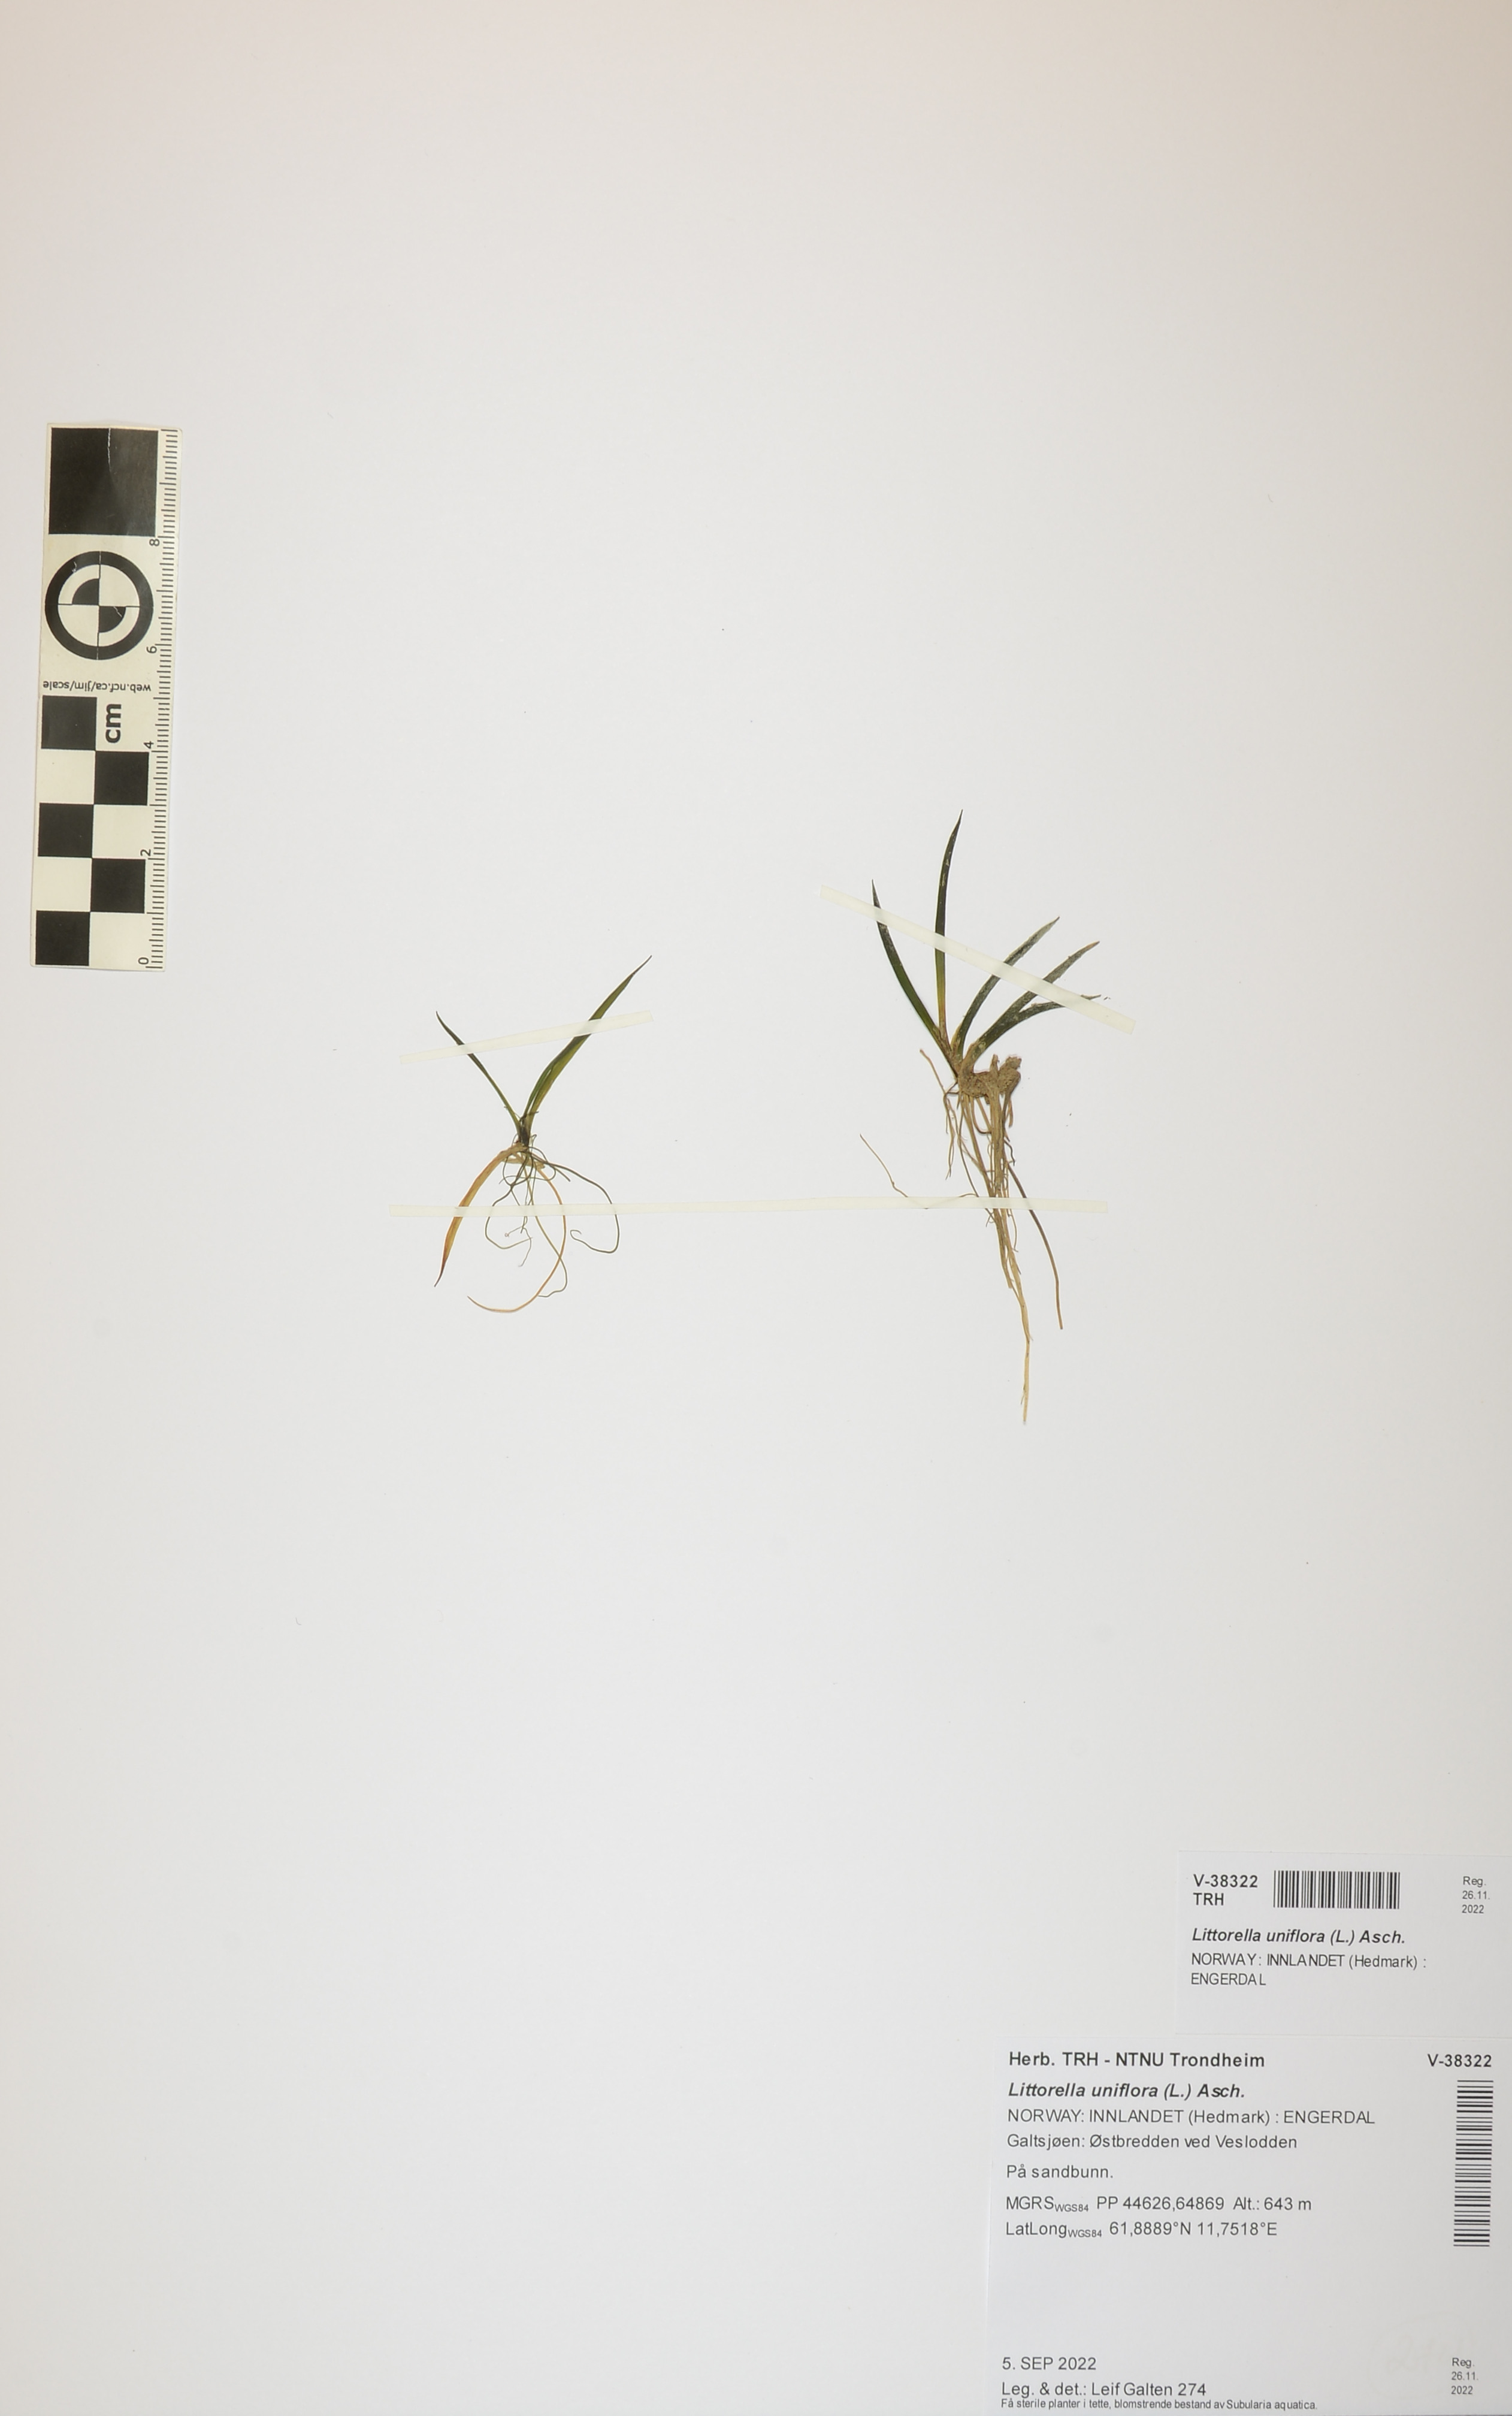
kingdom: Plantae
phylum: Tracheophyta
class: Magnoliopsida
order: Lamiales
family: Plantaginaceae
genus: Littorella
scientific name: Littorella uniflora
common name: Shoreweed
